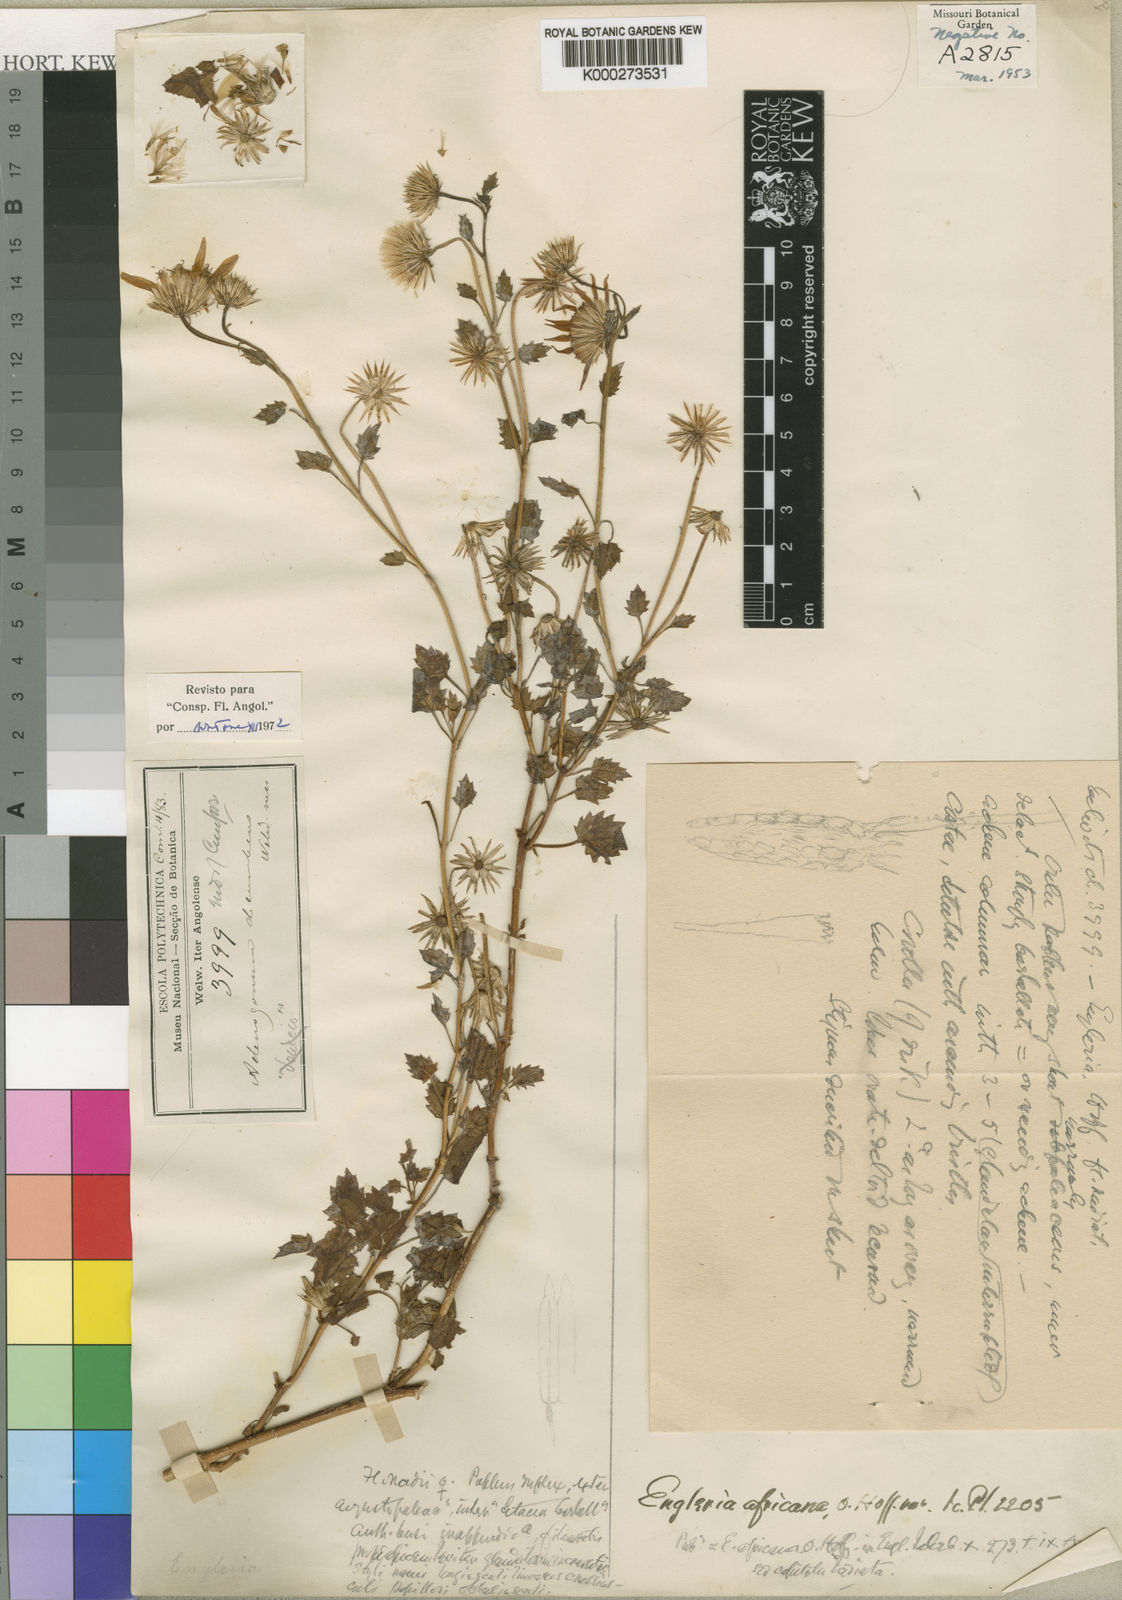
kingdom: Plantae
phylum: Tracheophyta
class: Magnoliopsida
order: Asterales
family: Asteraceae
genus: Engleria
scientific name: Engleria africana
